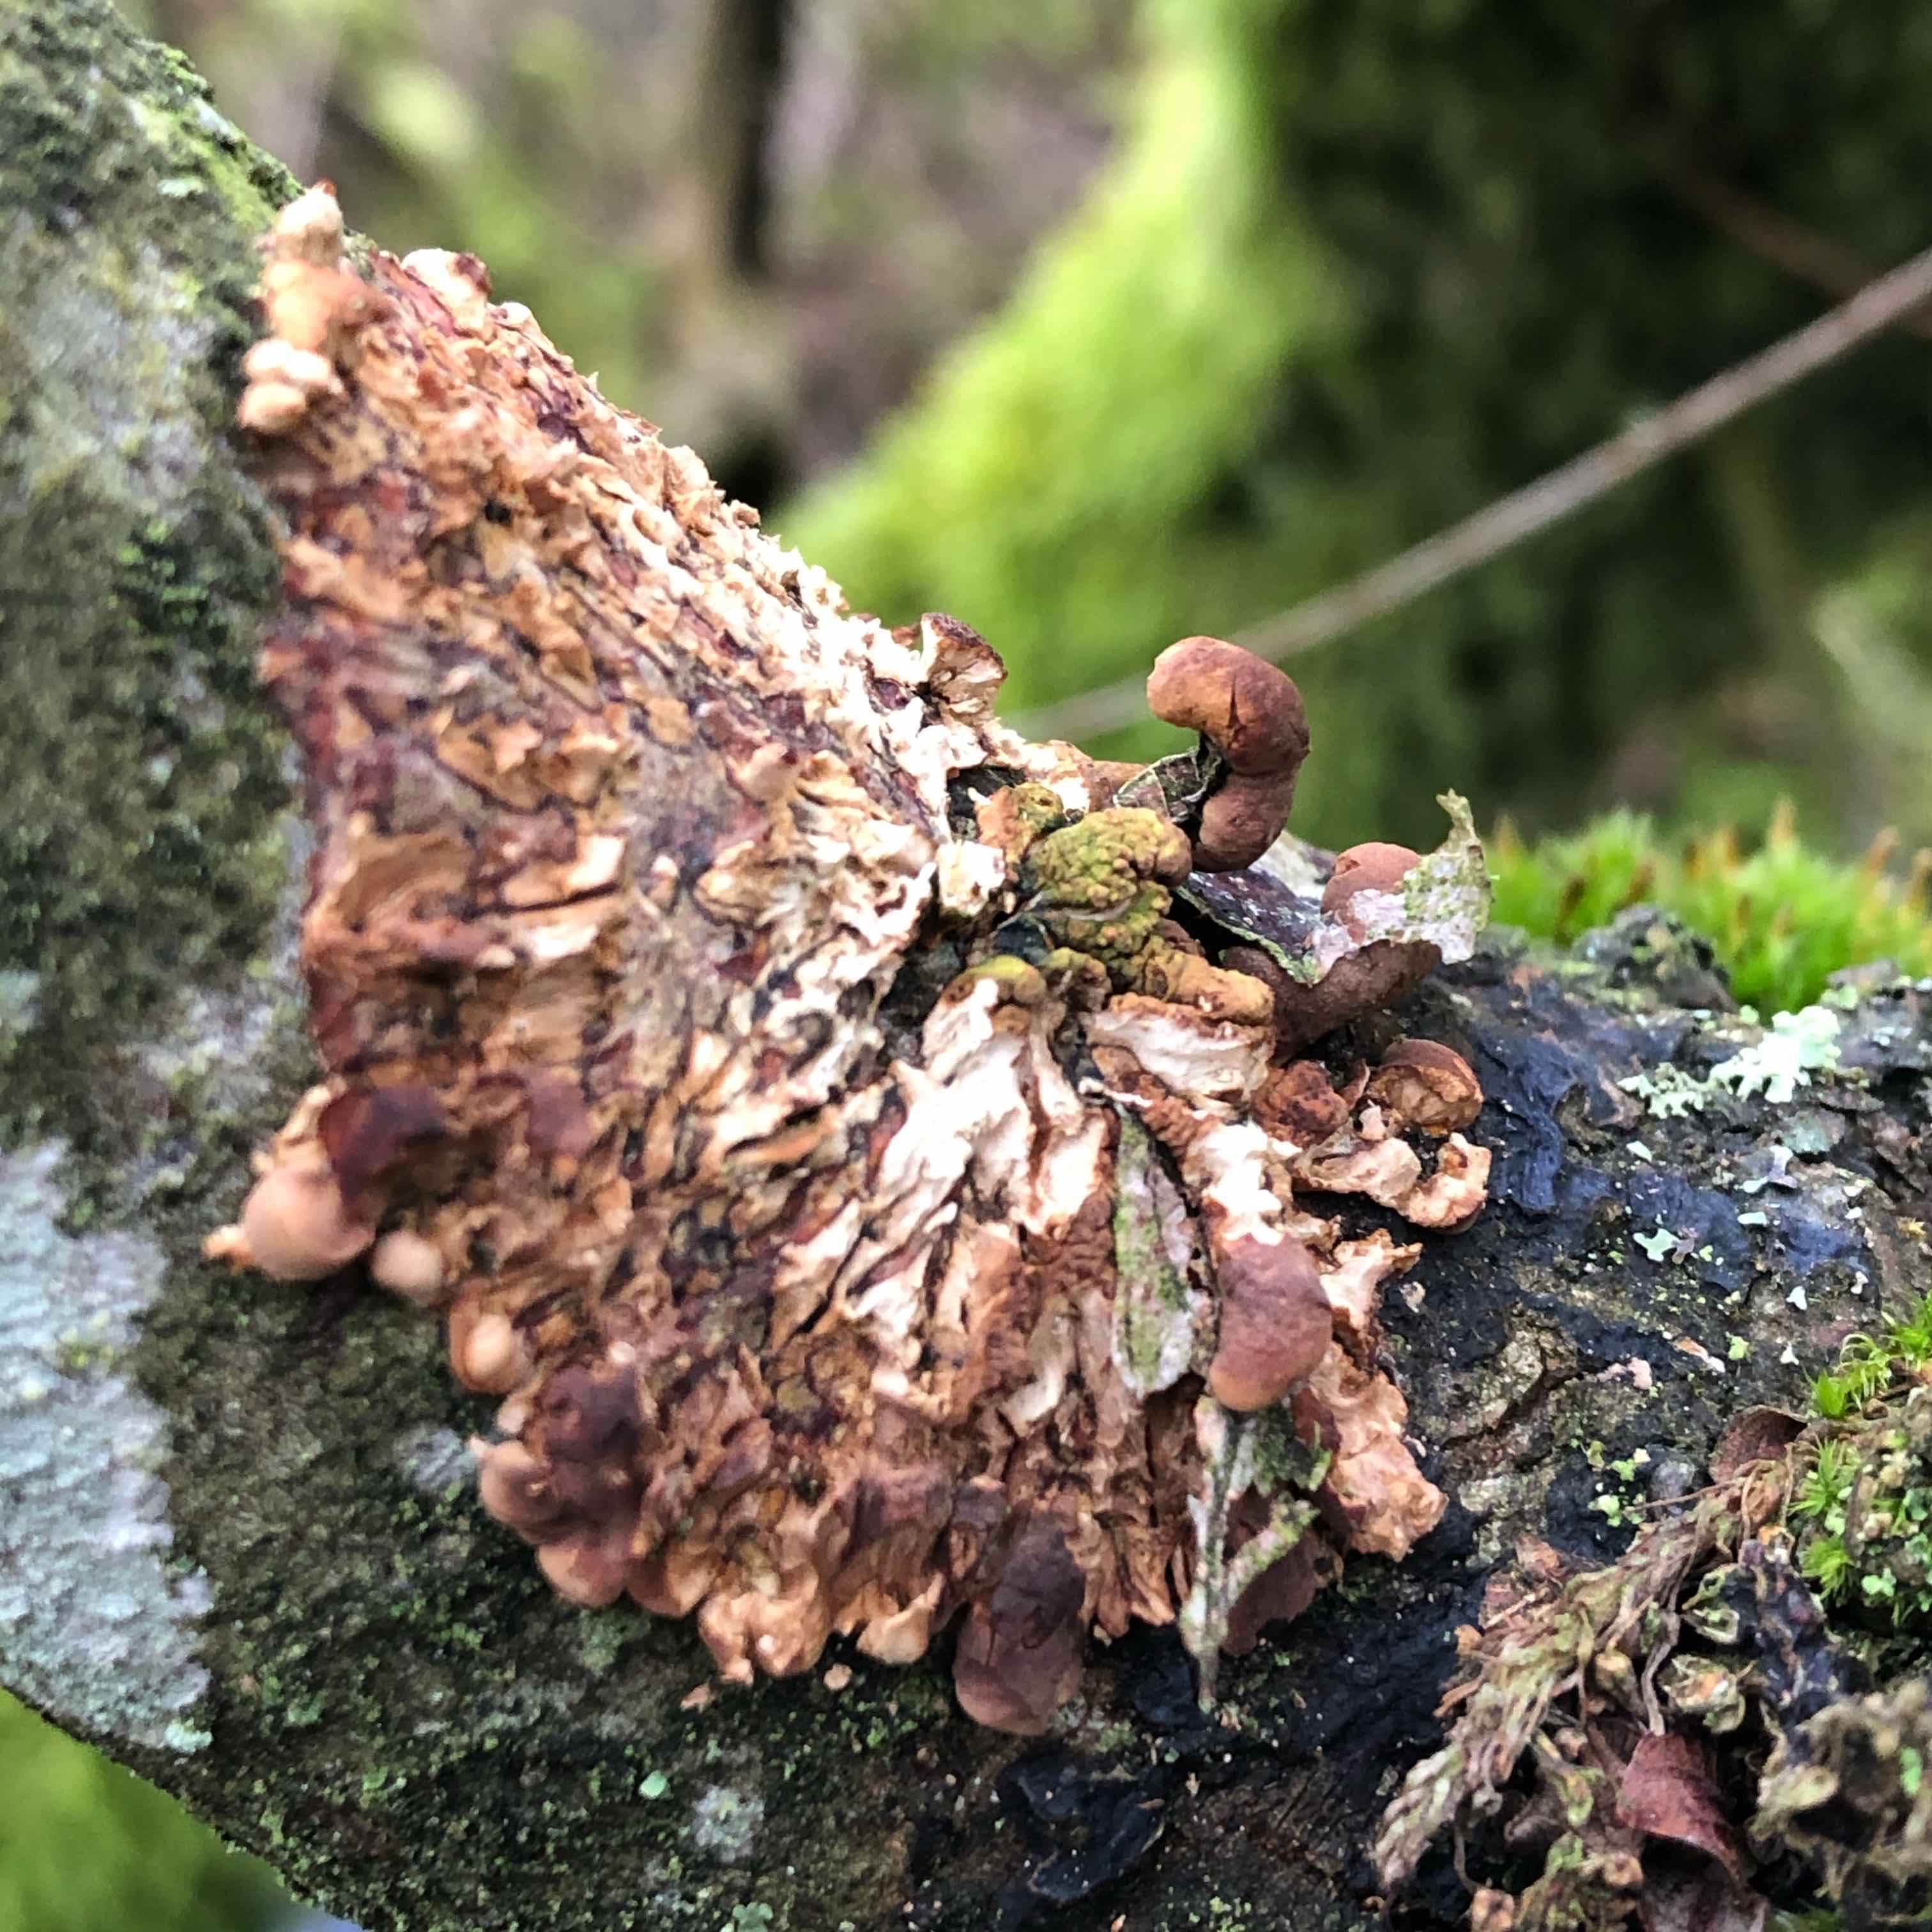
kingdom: Fungi
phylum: Ascomycota
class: Sordariomycetes
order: Hypocreales
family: Hypocreaceae
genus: Hypocreopsis
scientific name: Hypocreopsis lichenoides
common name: pilfinger
